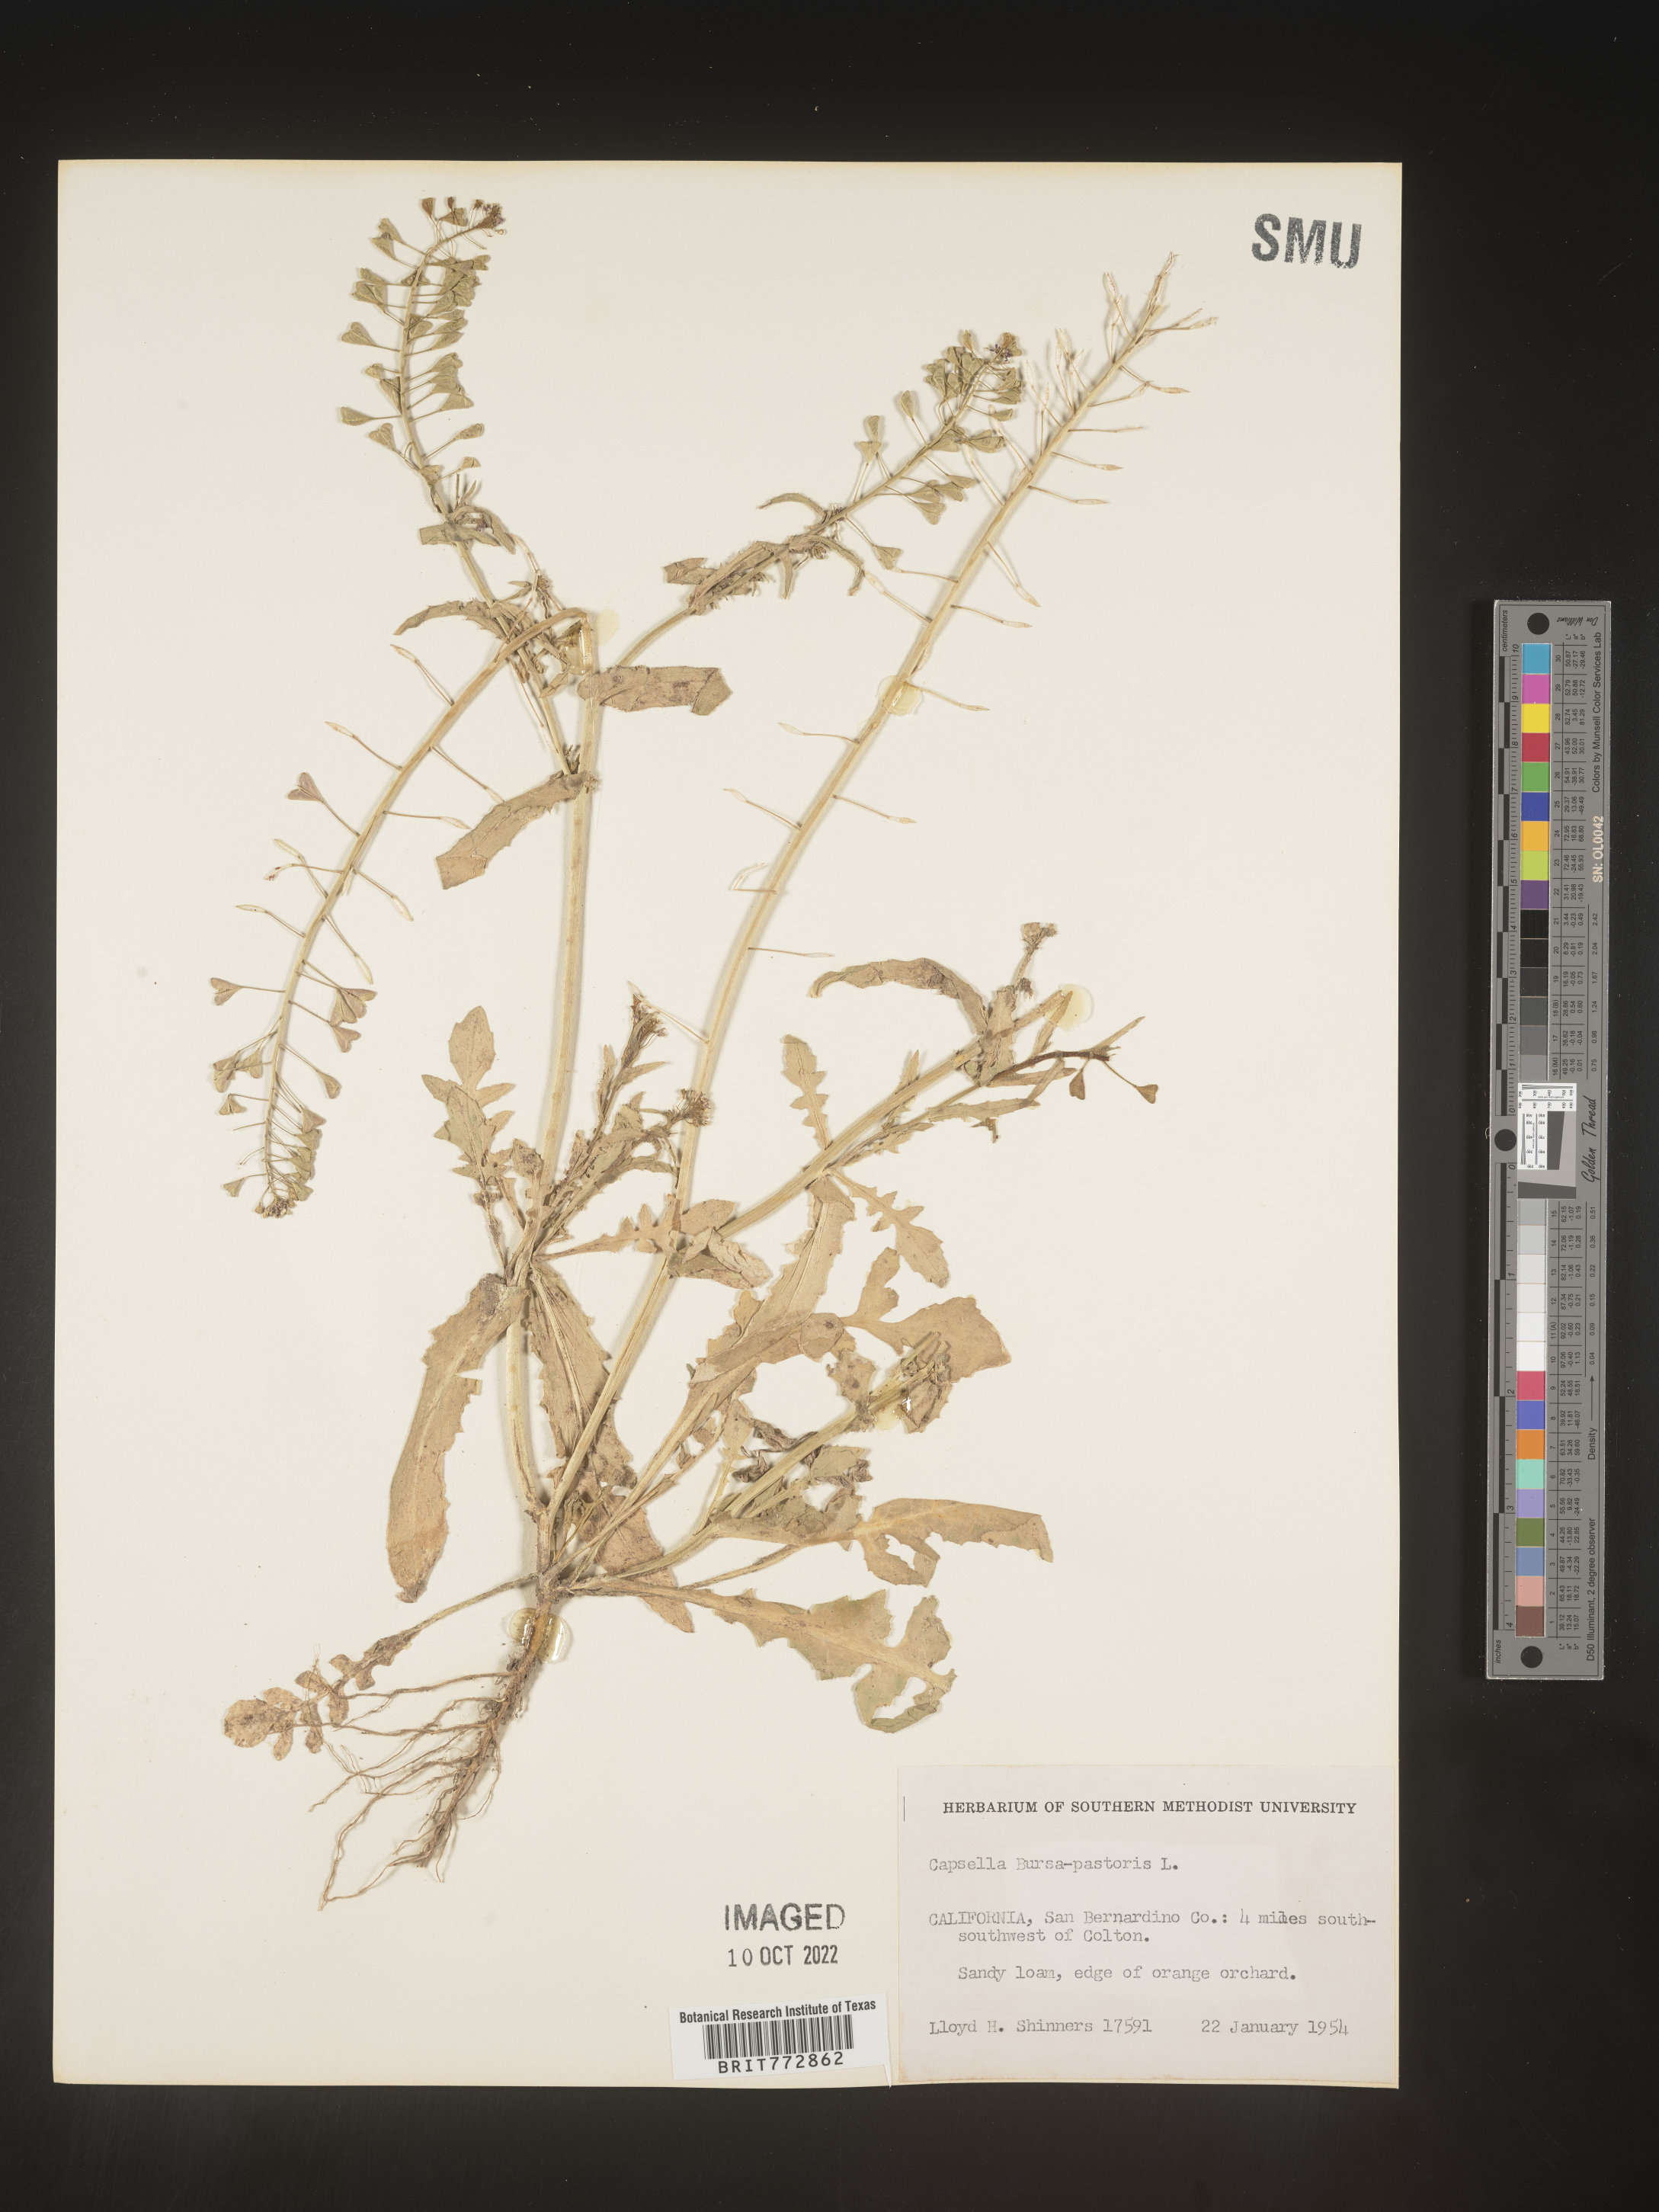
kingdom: Plantae
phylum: Tracheophyta
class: Magnoliopsida
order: Brassicales
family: Brassicaceae
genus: Capsella
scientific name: Capsella bursa-pastoris
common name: Shepherd's purse
